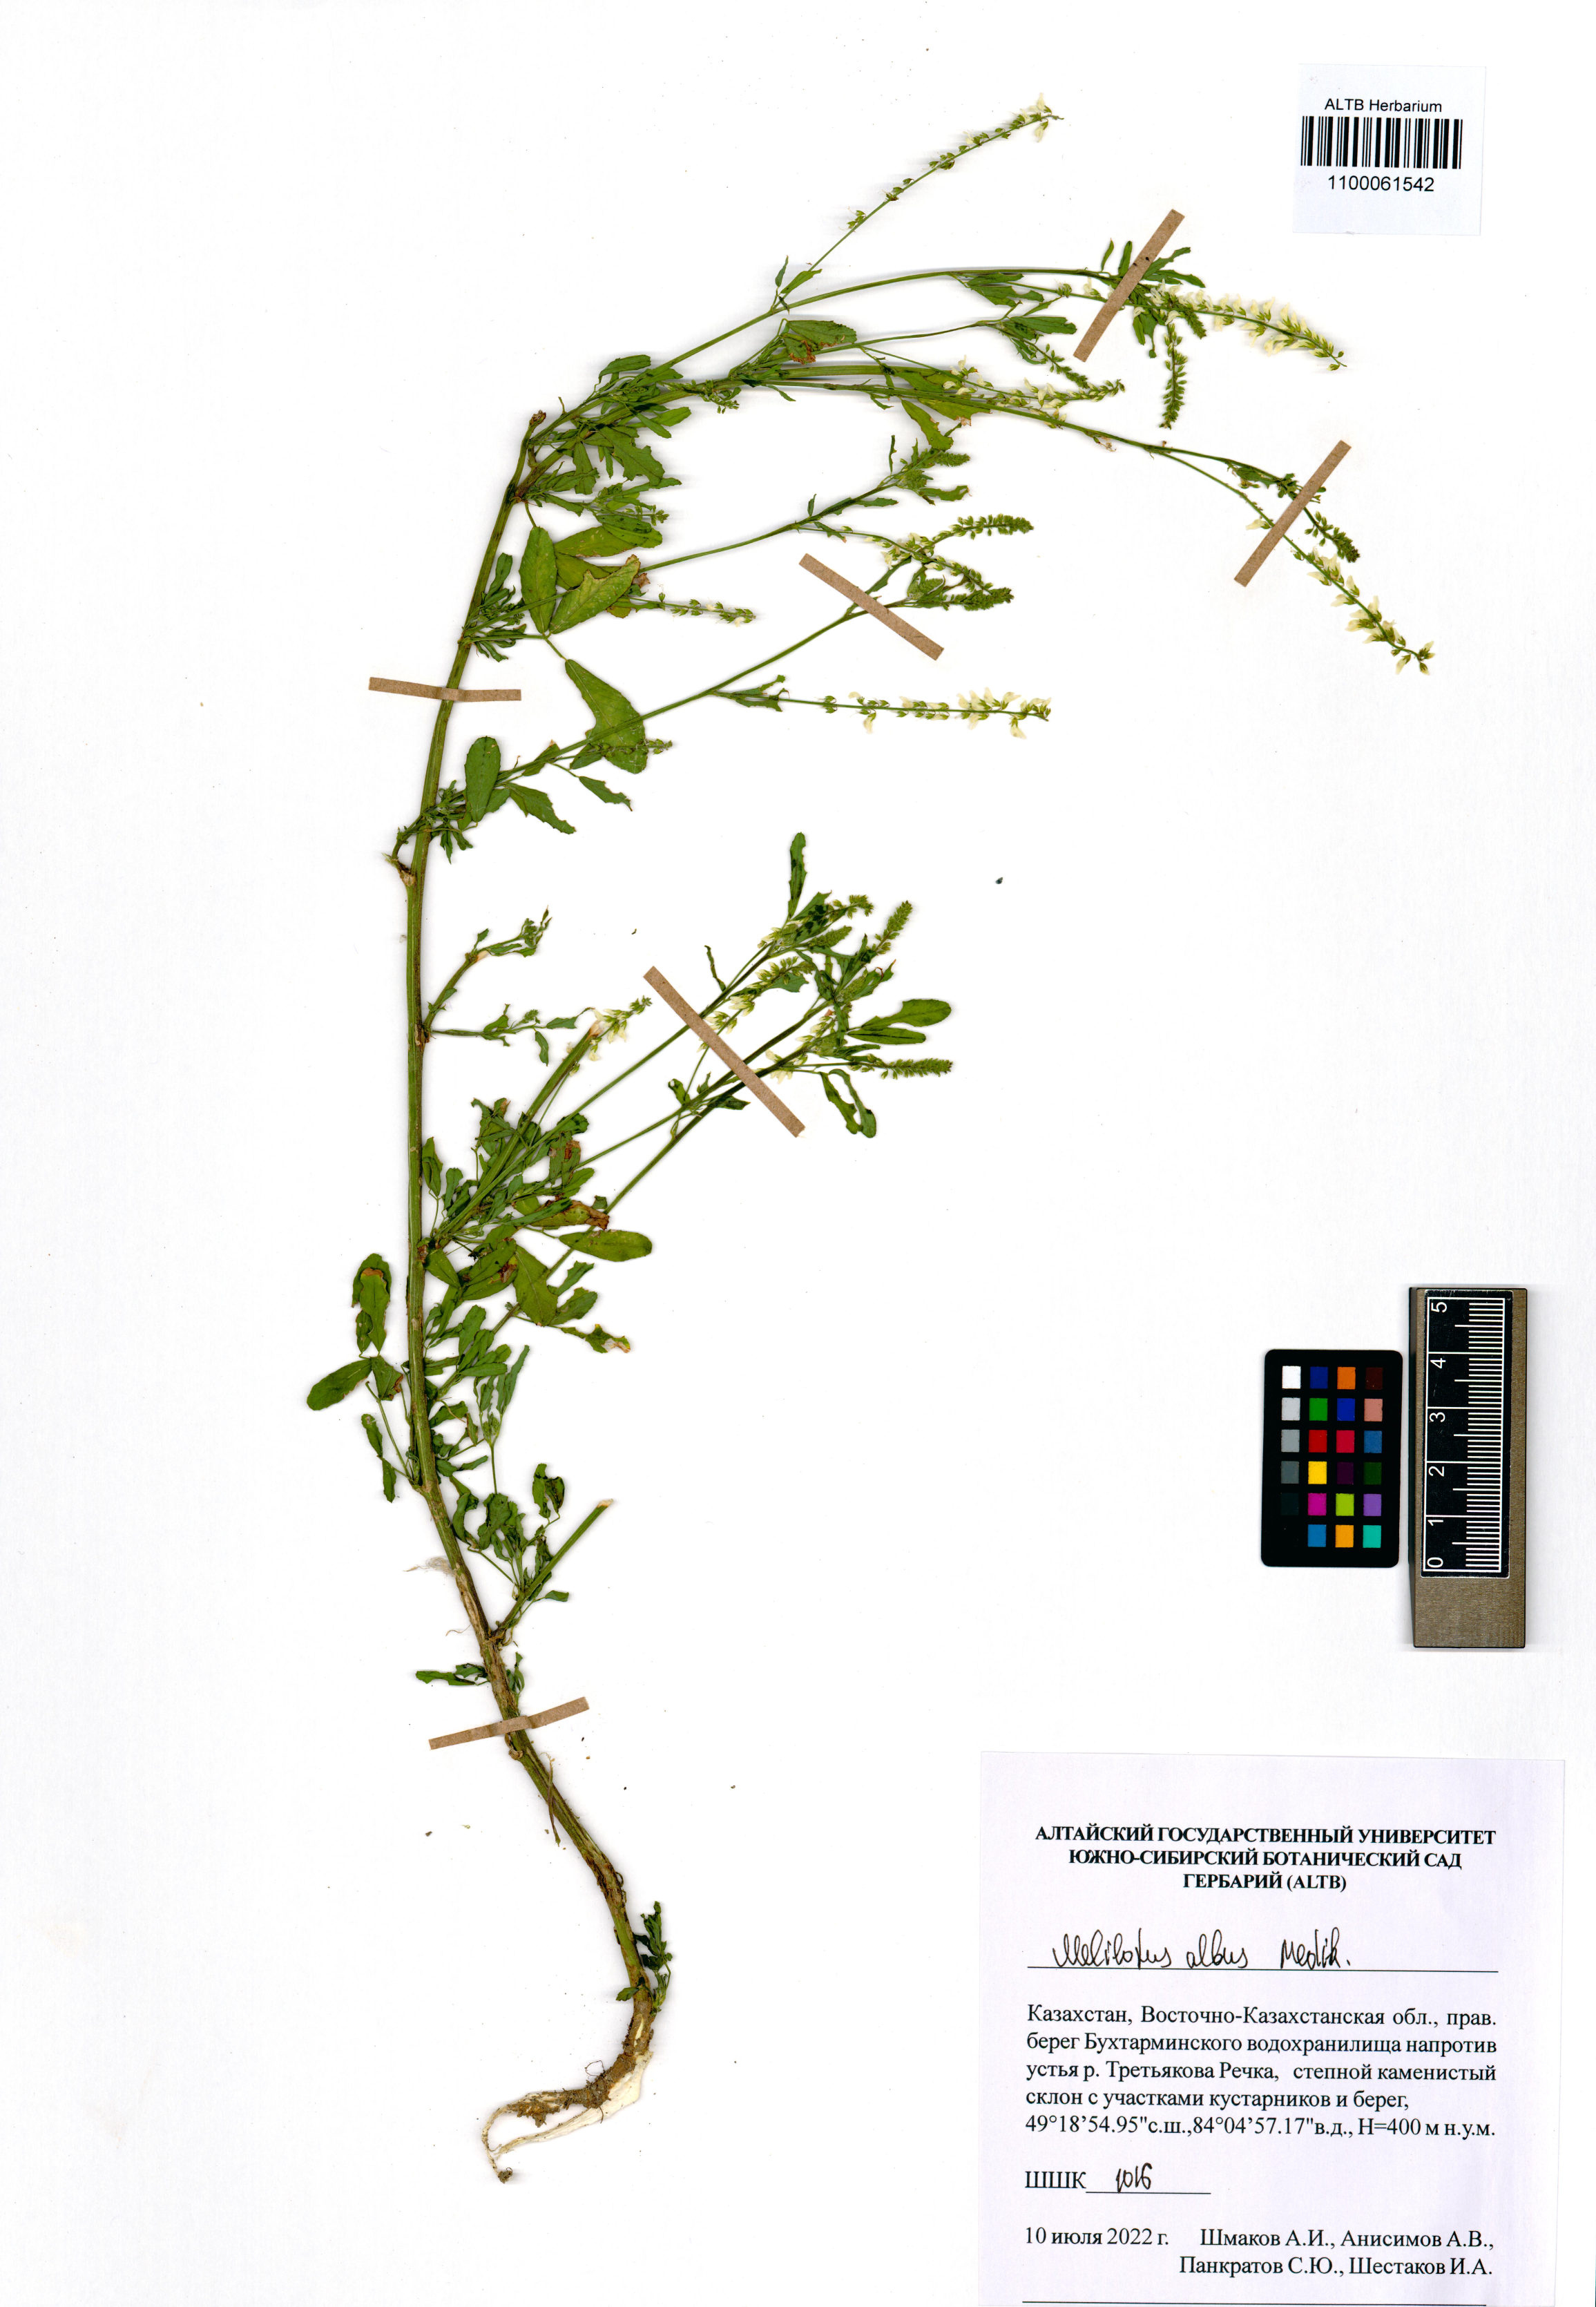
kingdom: Plantae
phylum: Tracheophyta
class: Magnoliopsida
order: Fabales
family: Fabaceae
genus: Melilotus
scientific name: Melilotus albus
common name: White melilot
